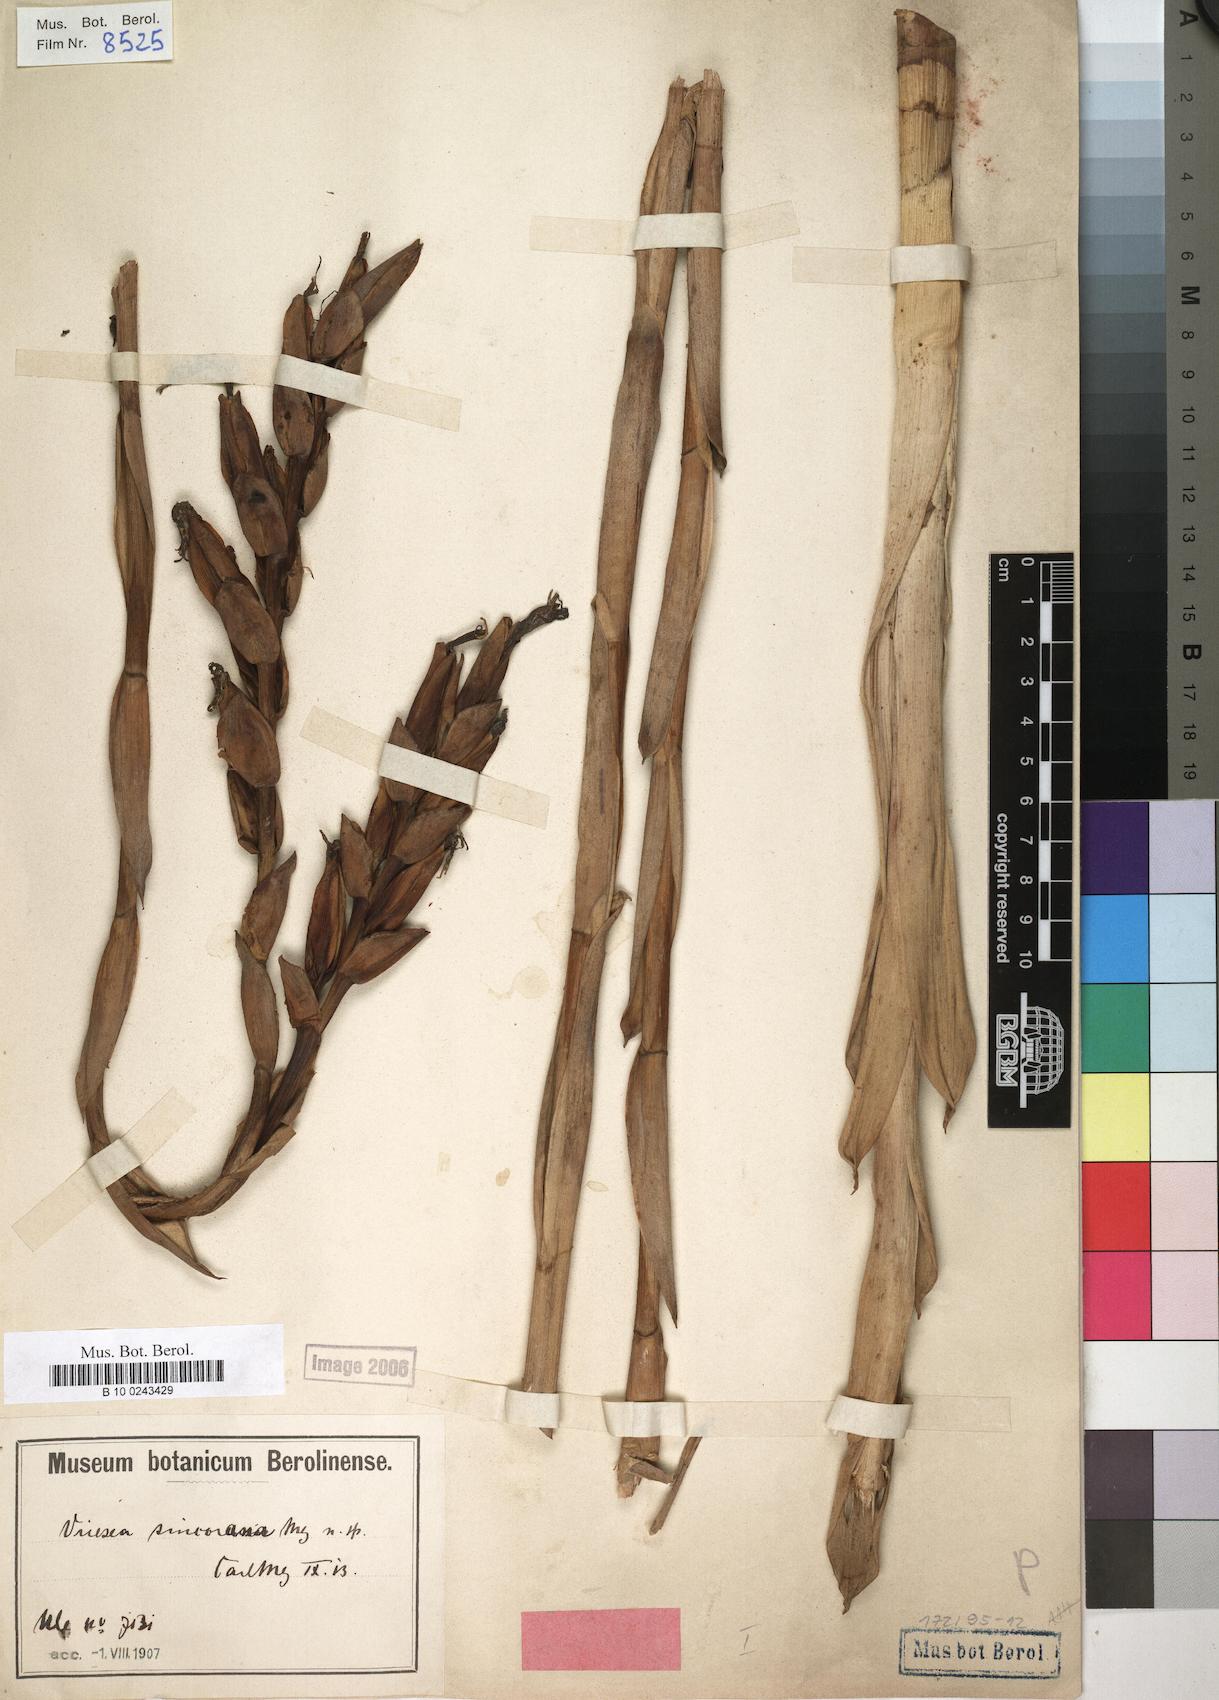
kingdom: Plantae
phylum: Tracheophyta
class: Liliopsida
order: Poales
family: Bromeliaceae
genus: Vriesea
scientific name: Vriesea sincorana
